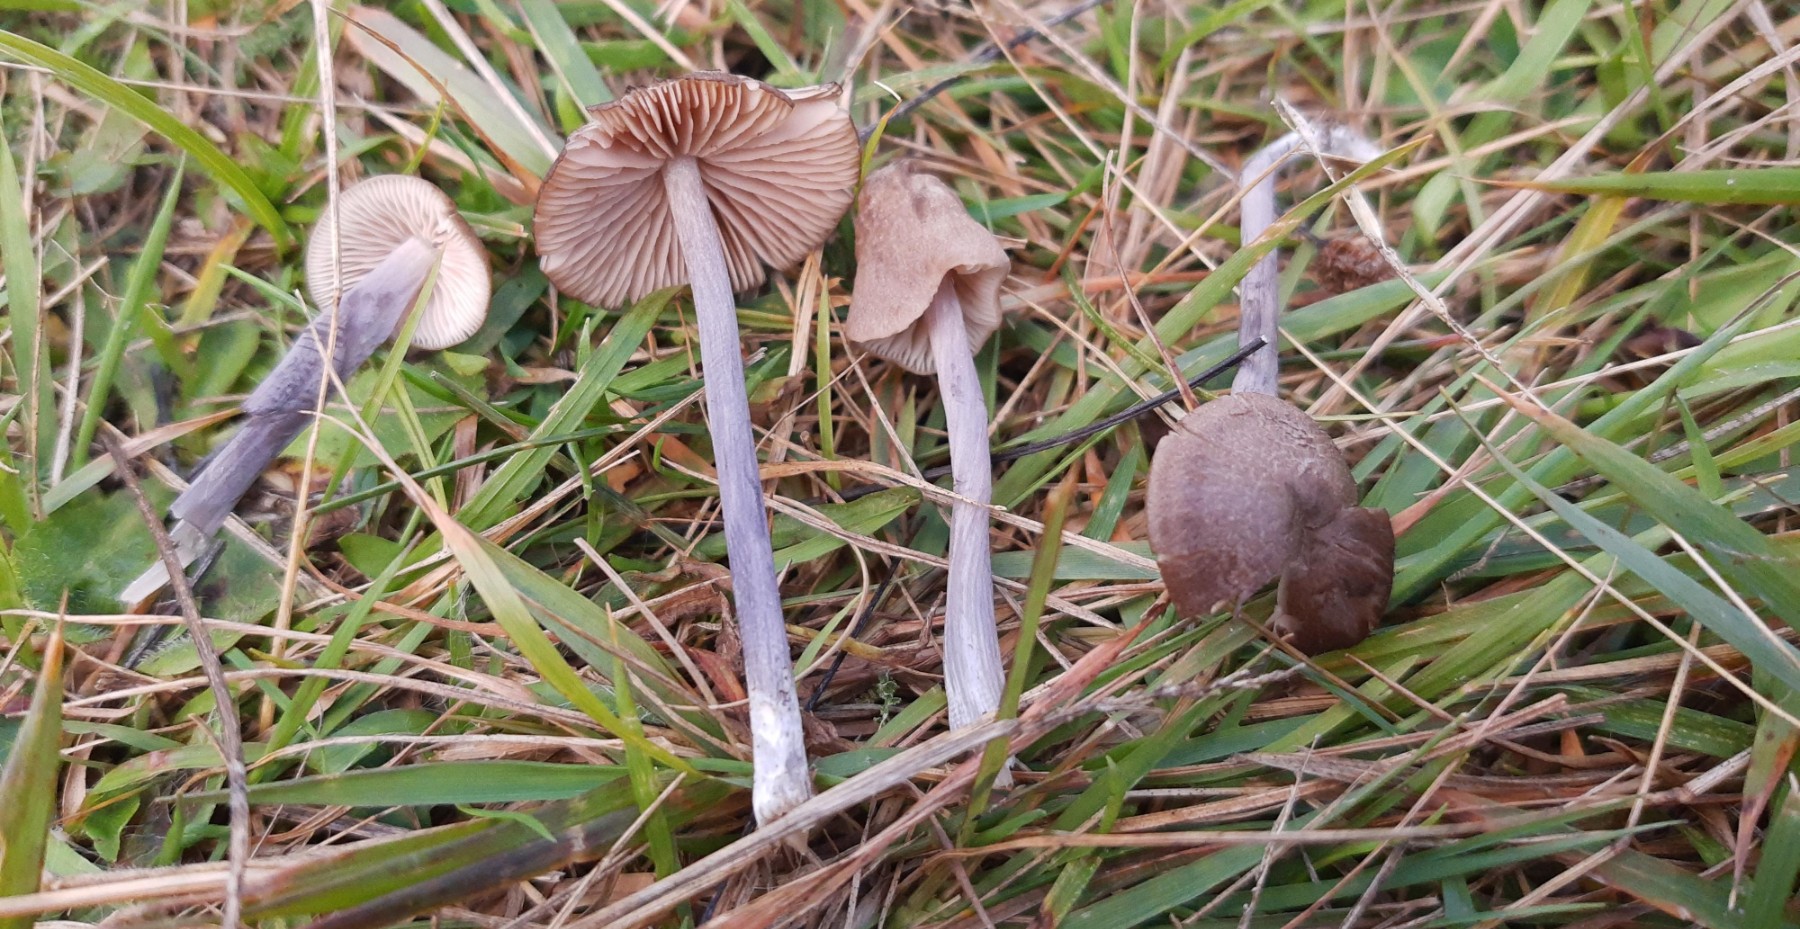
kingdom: Fungi
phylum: Basidiomycota
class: Agaricomycetes
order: Agaricales
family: Entolomataceae
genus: Entoloma
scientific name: Entoloma griseocyaneum
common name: gråblå rødblad
